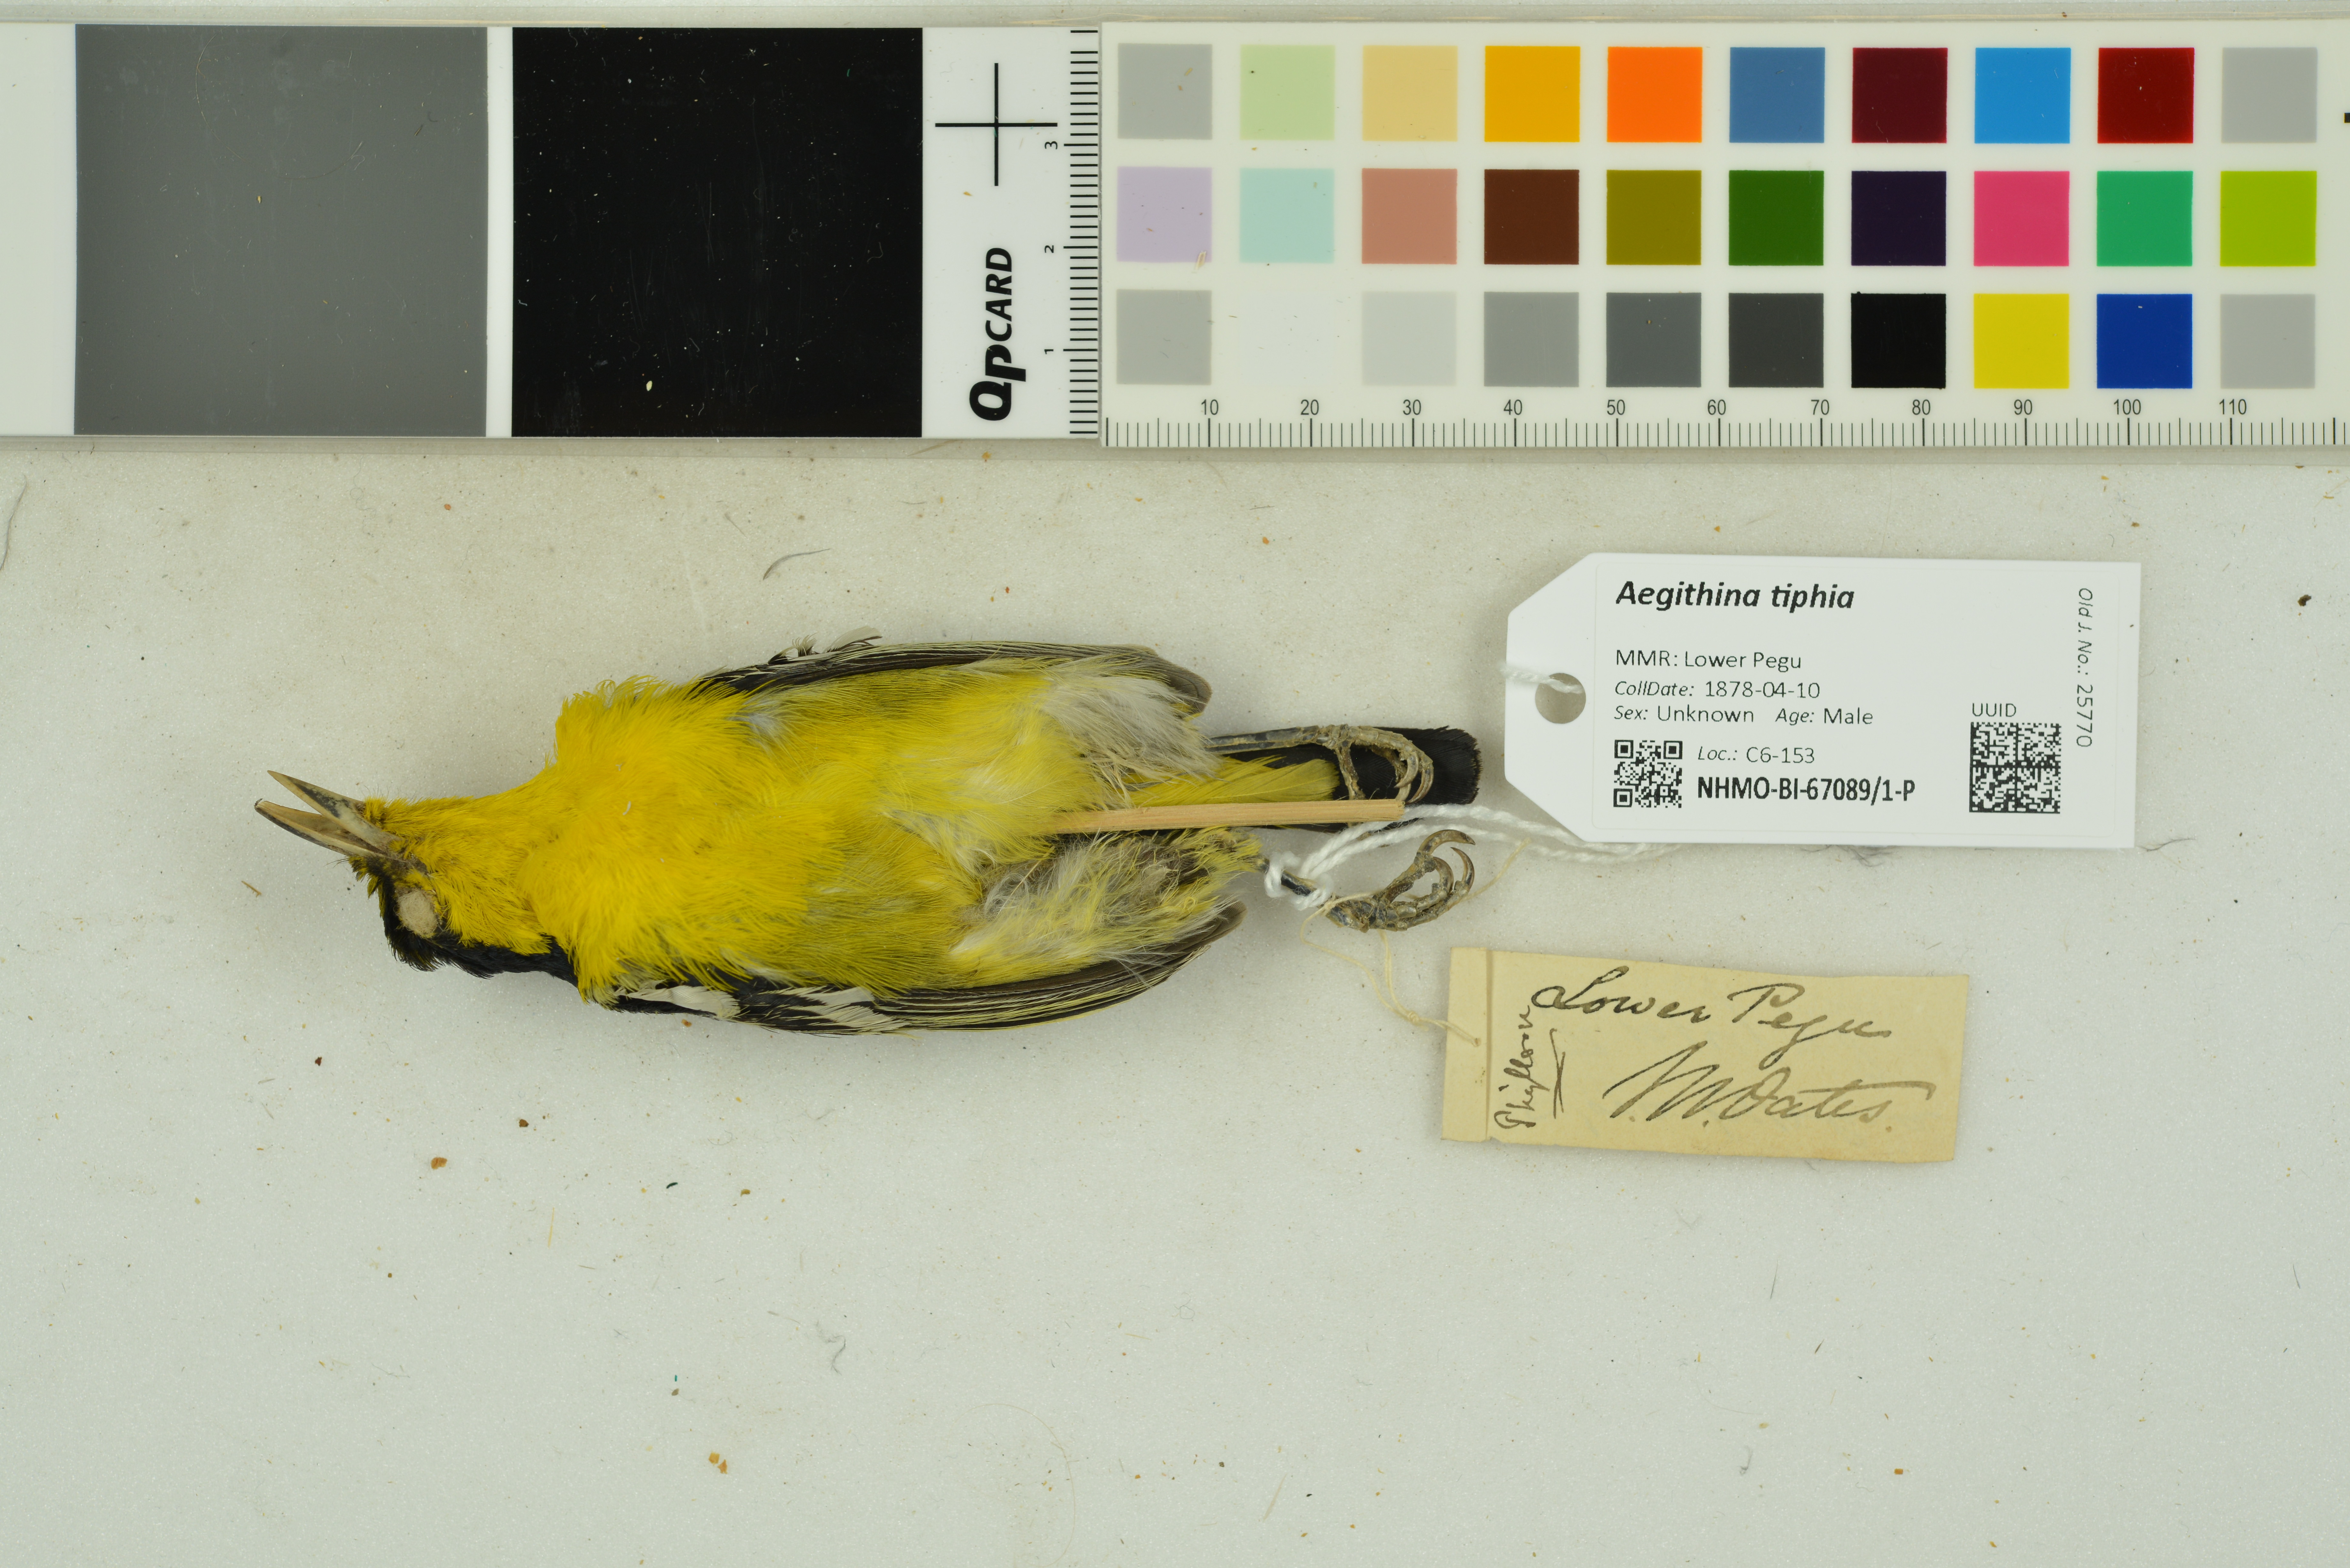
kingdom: Animalia
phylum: Chordata
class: Aves
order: Passeriformes
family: Aegithinidae
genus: Aegithina
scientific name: Aegithina tiphia
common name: Common iora
